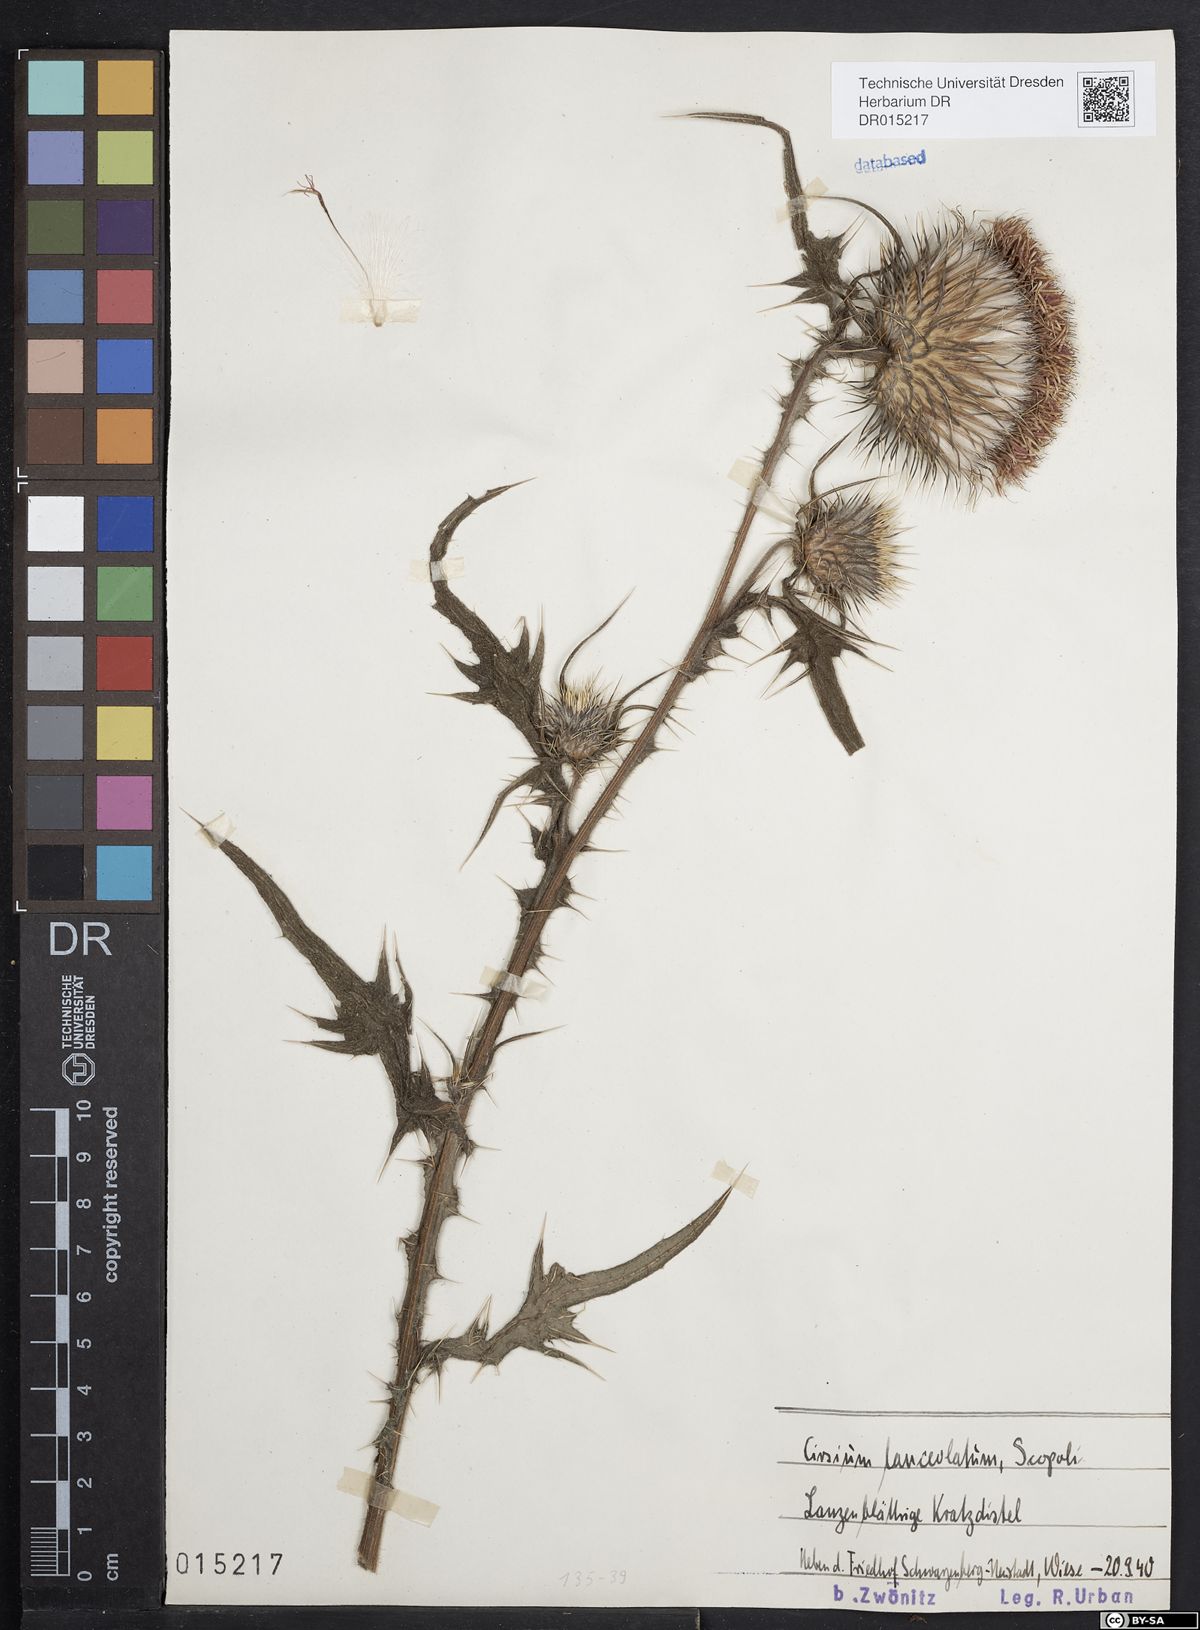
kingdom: Plantae
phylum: Tracheophyta
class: Magnoliopsida
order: Asterales
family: Asteraceae
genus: Cirsium
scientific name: Cirsium vulgare
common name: Bull thistle
